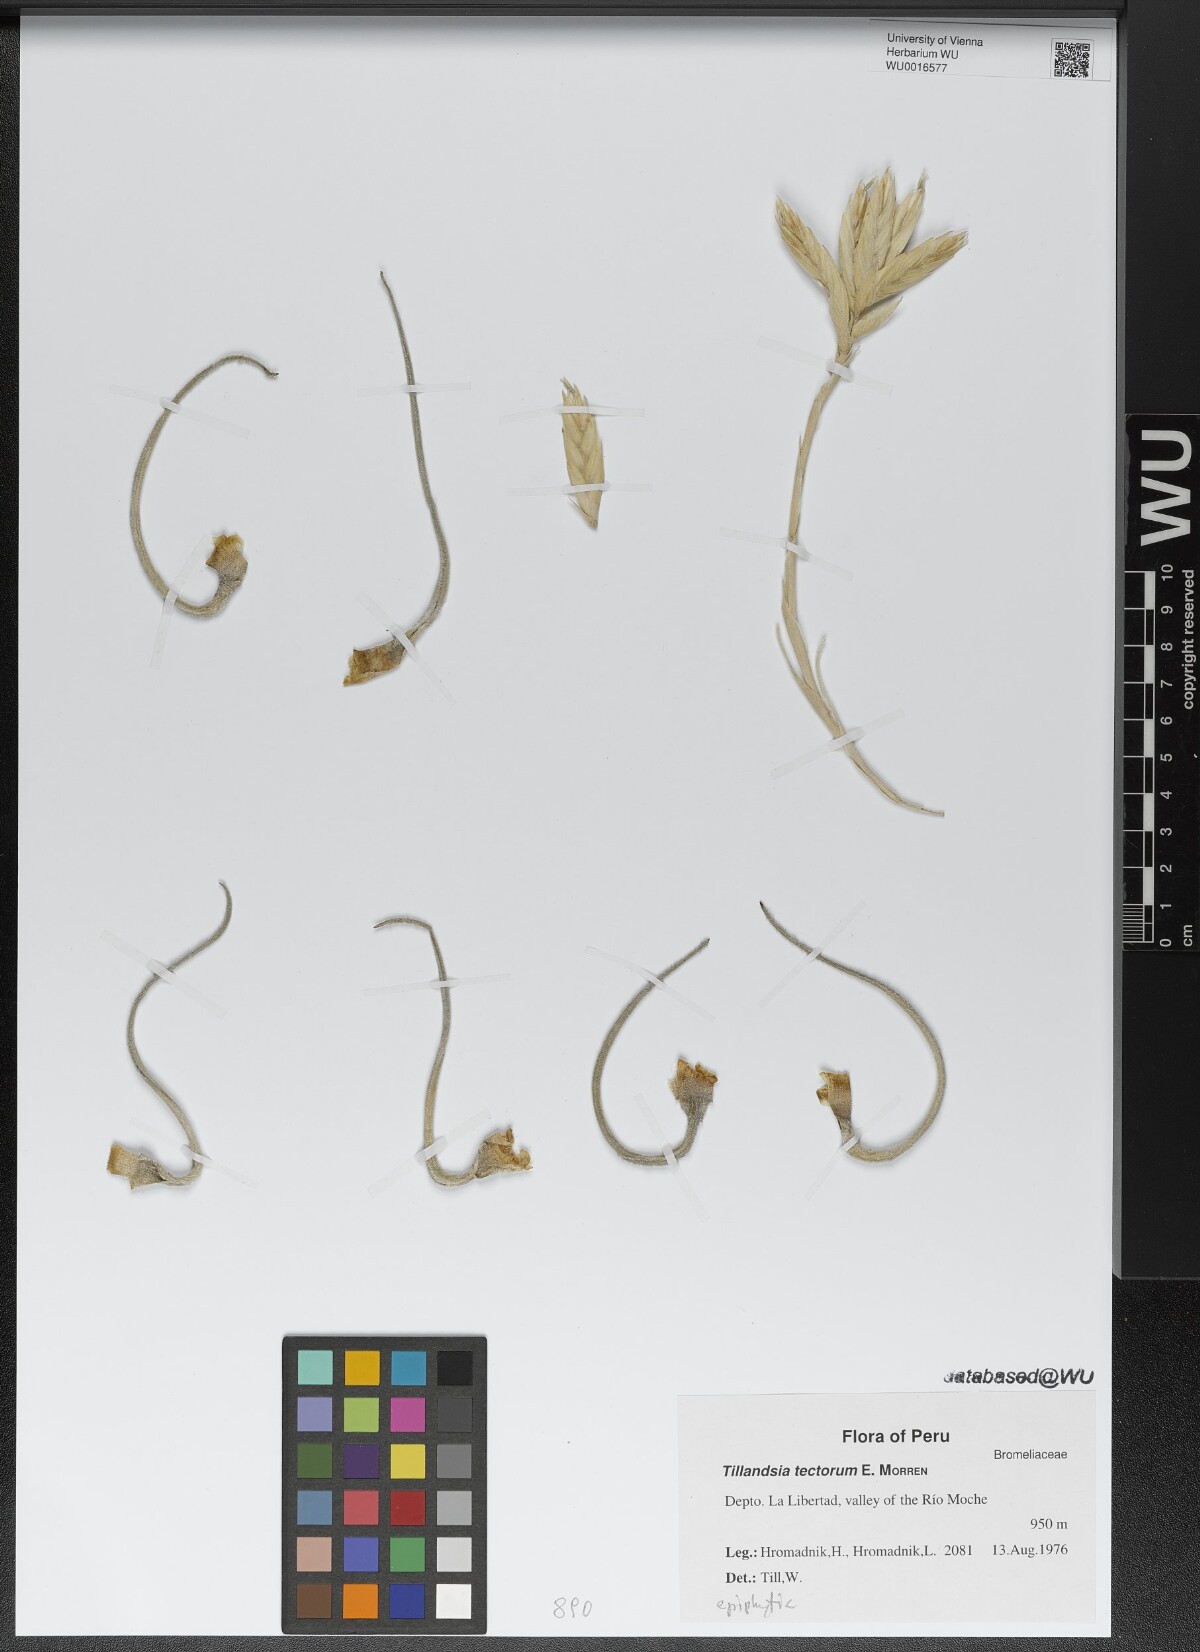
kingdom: Plantae
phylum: Tracheophyta
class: Liliopsida
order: Poales
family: Bromeliaceae
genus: Tillandsia
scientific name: Tillandsia tectorum
